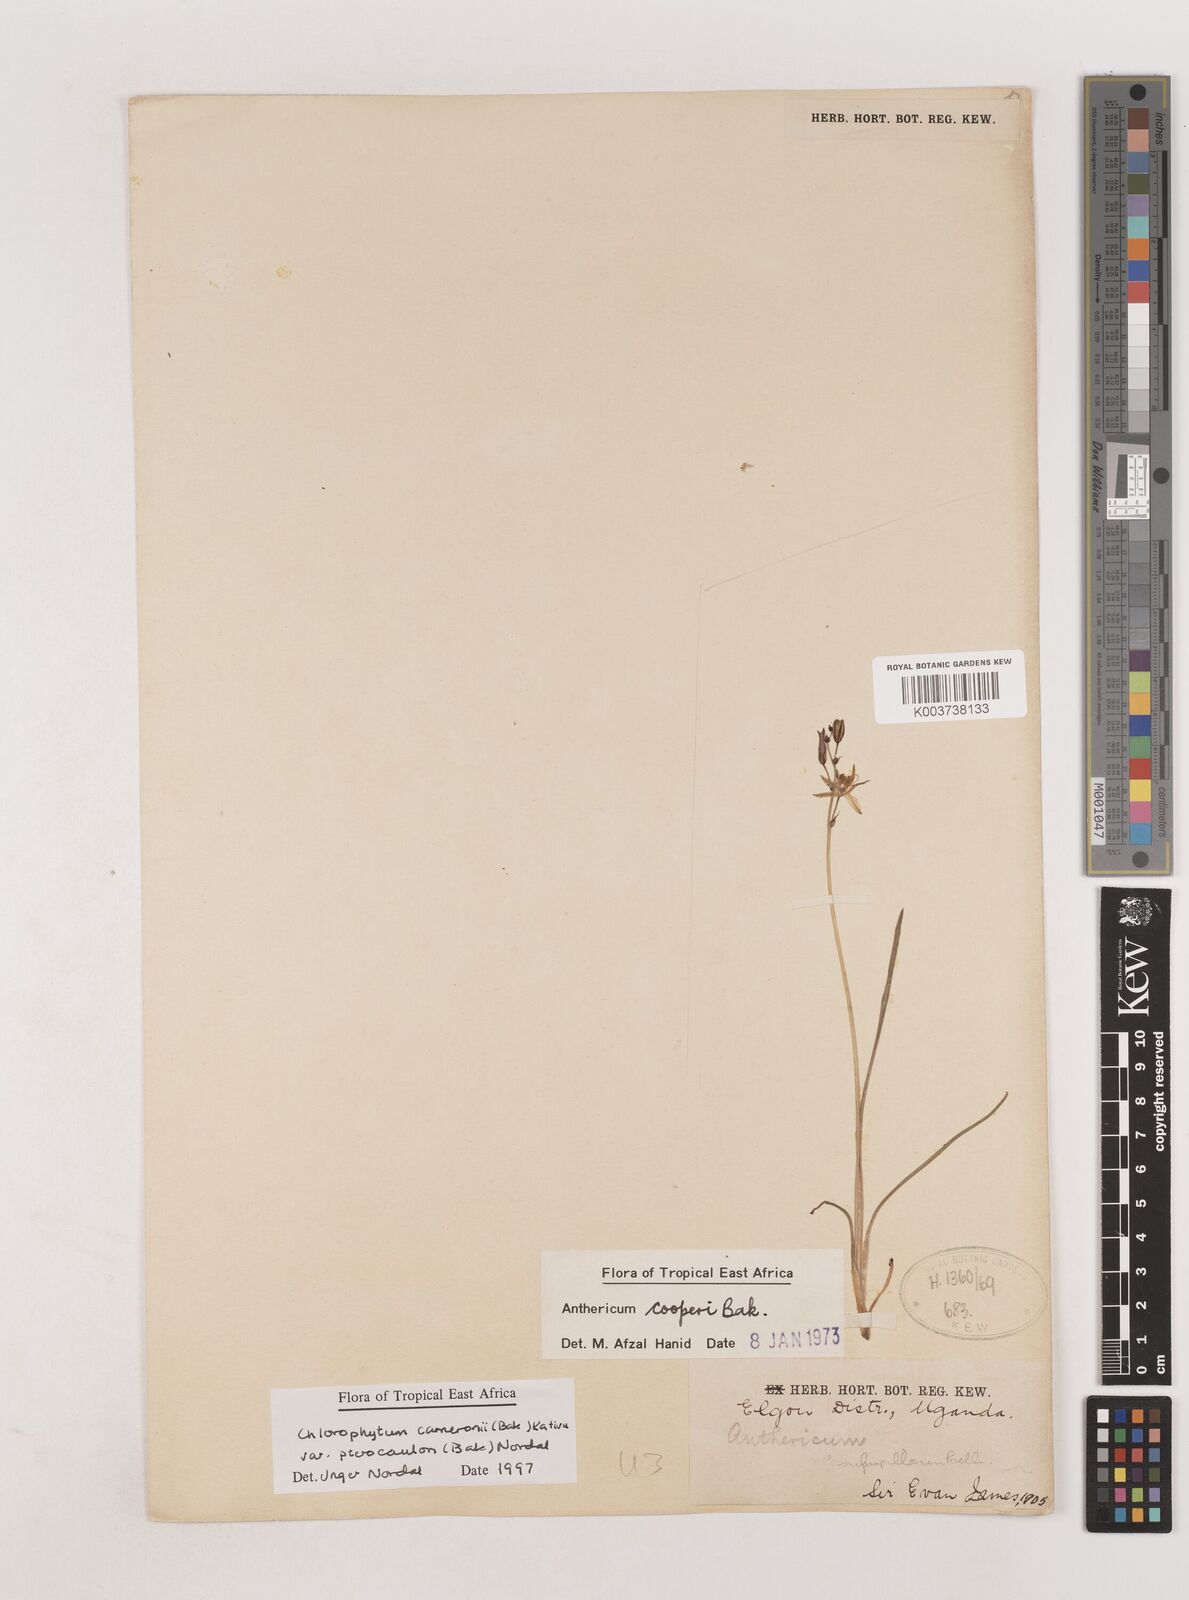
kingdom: Plantae
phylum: Tracheophyta
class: Liliopsida
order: Asparagales
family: Asparagaceae
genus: Chlorophytum
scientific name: Chlorophytum cameronii
